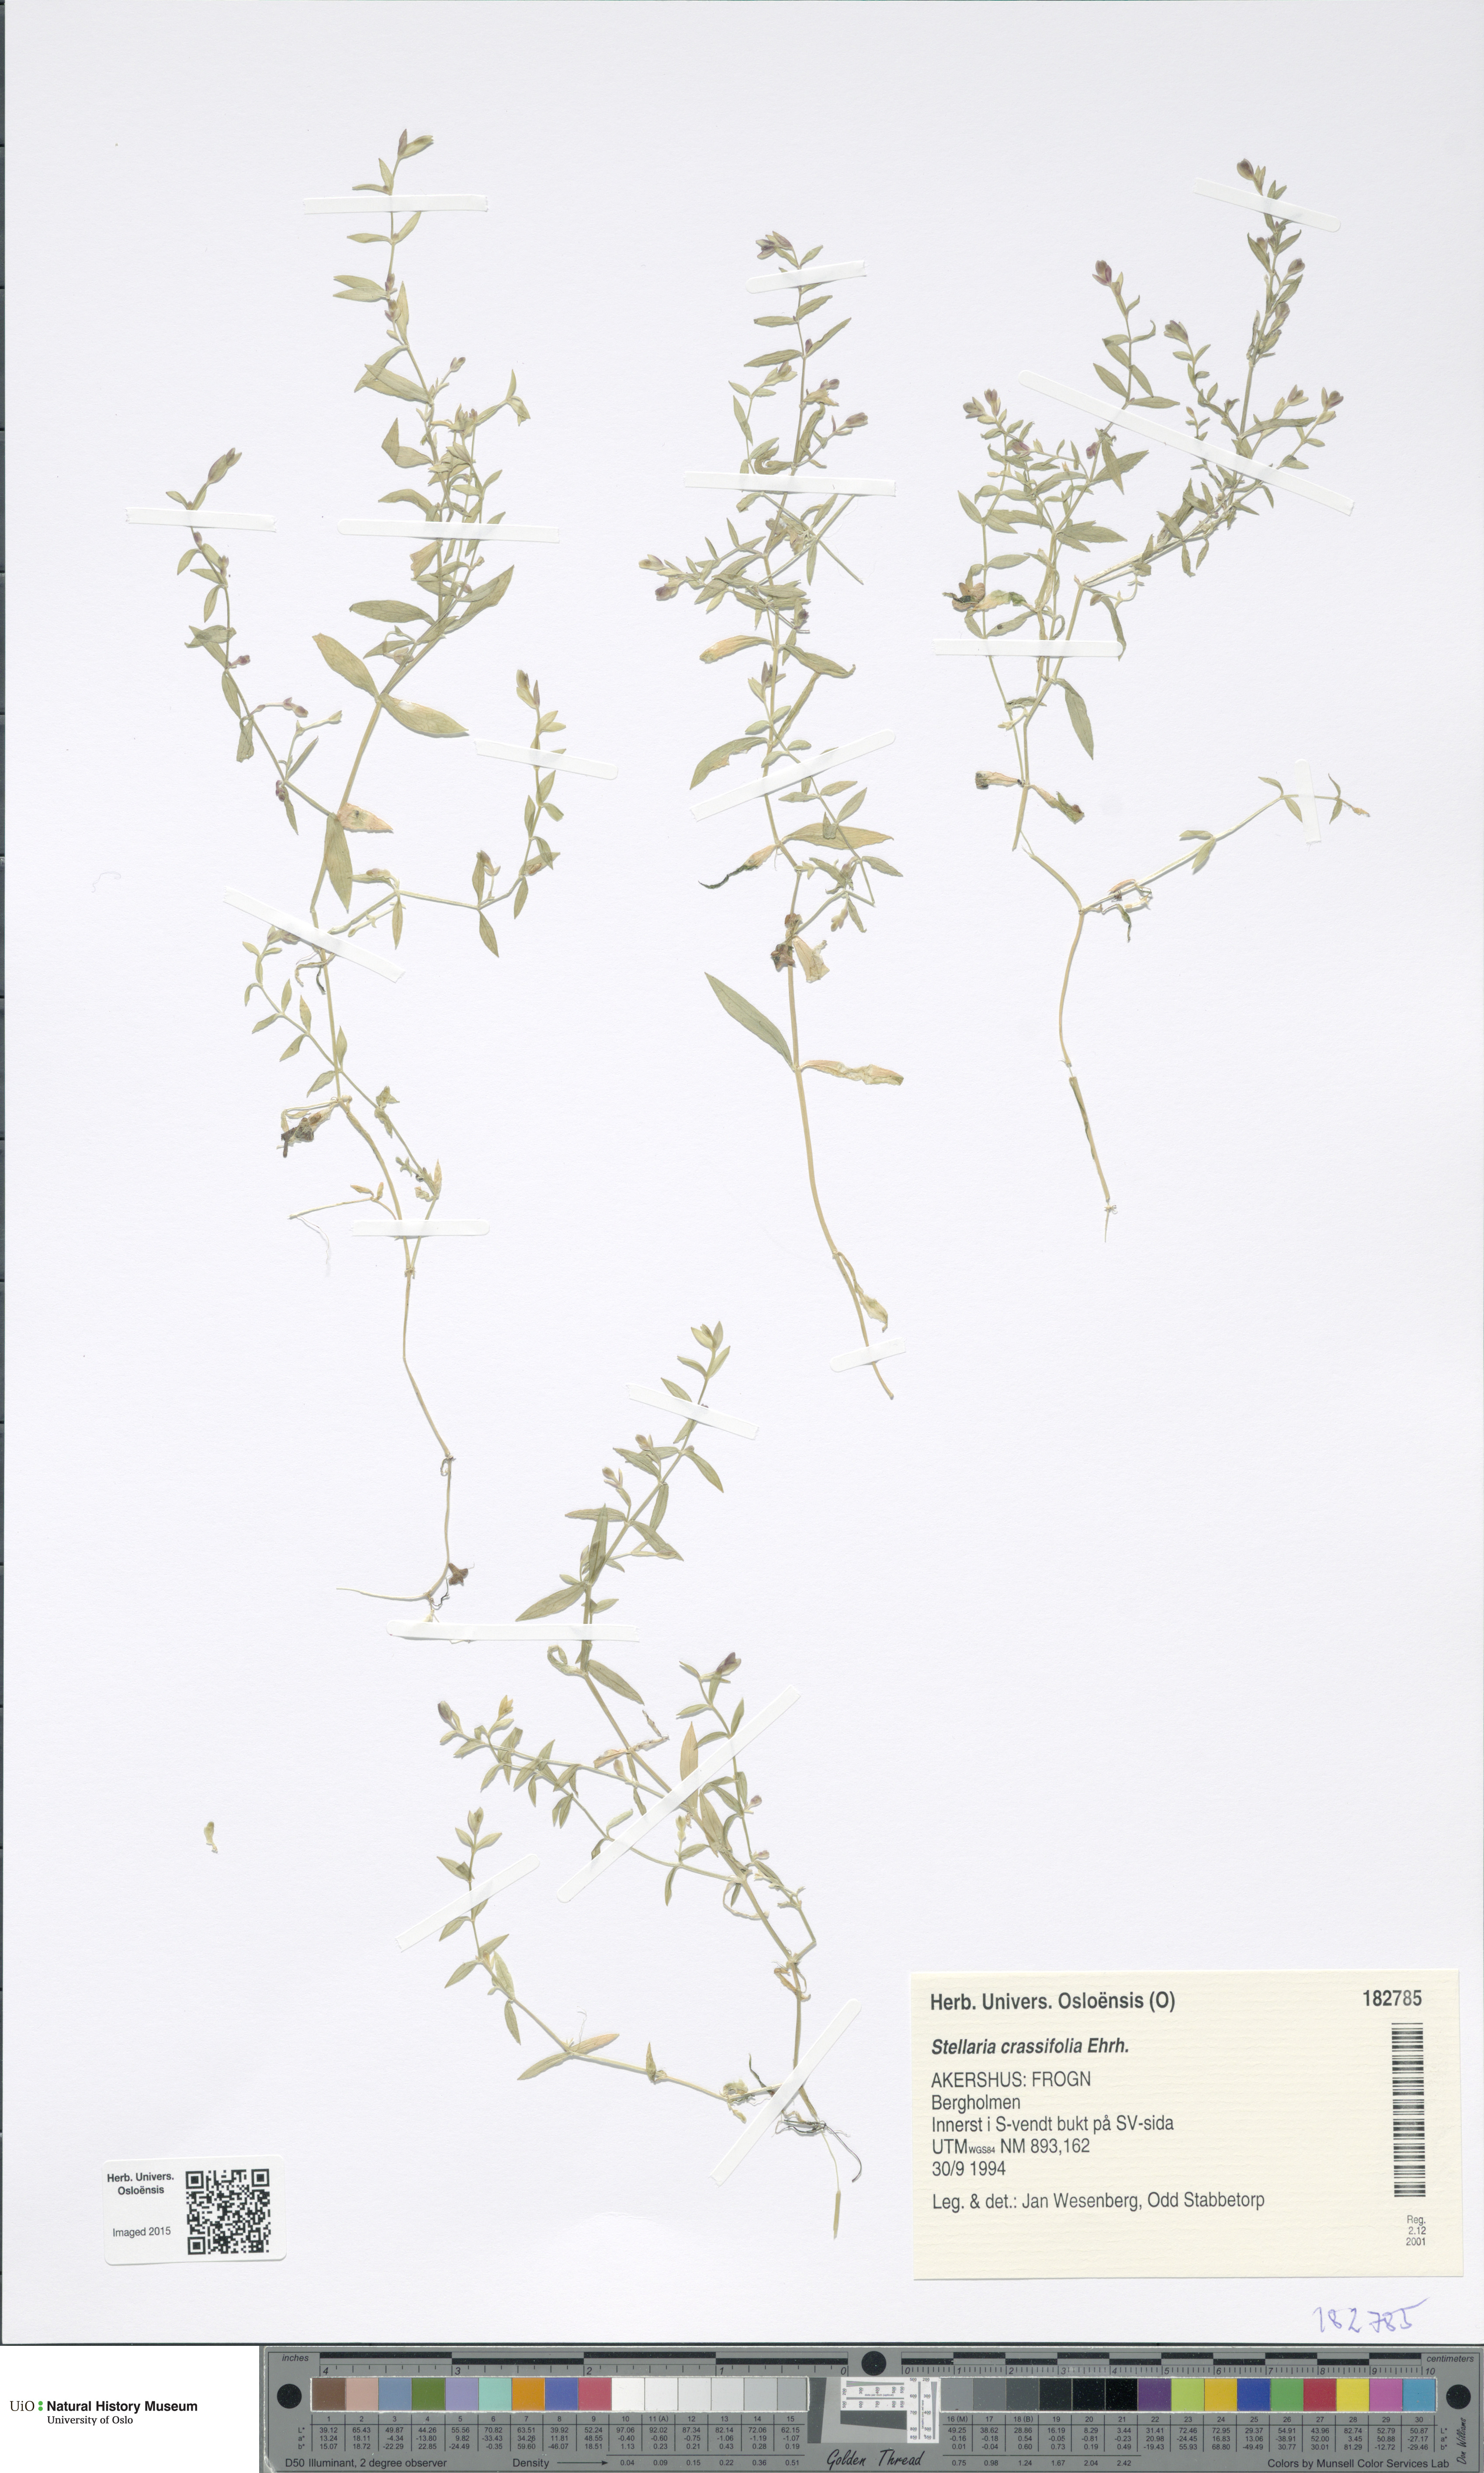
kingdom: Plantae
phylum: Tracheophyta
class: Magnoliopsida
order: Caryophyllales
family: Caryophyllaceae
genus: Stellaria
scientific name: Stellaria crassifolia
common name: Fleshy starwort
